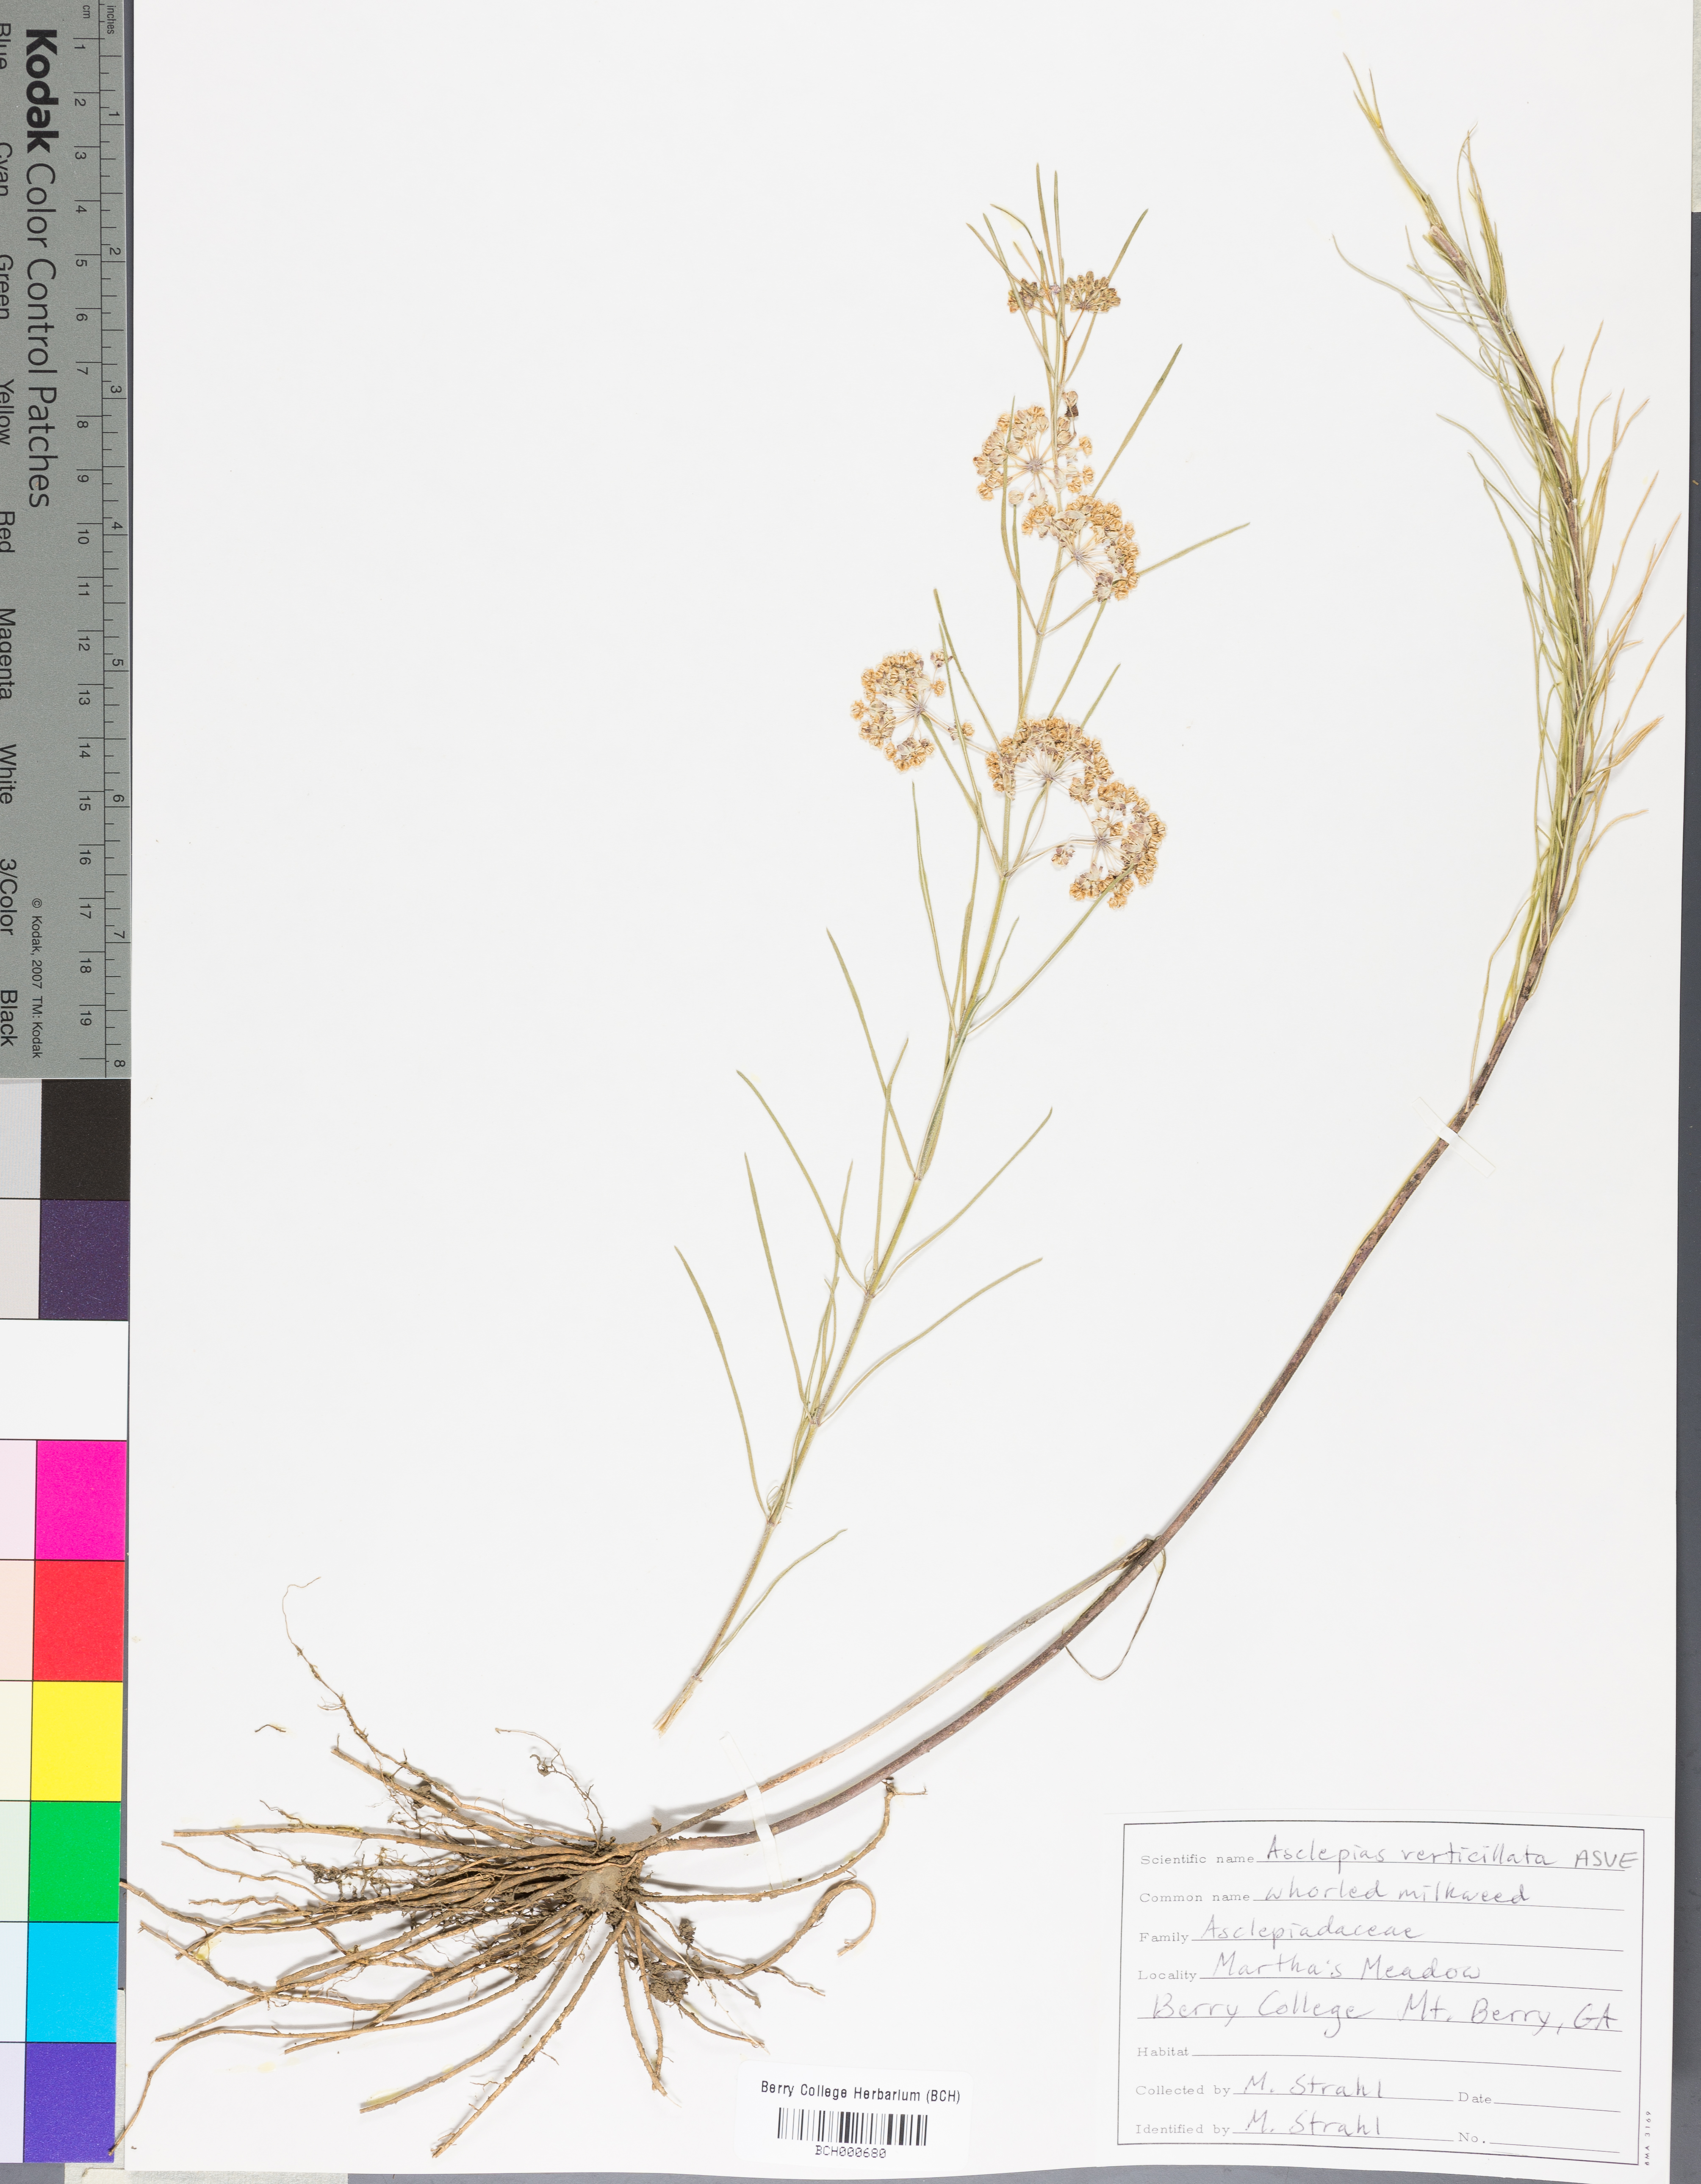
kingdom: Plantae
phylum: Tracheophyta
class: Magnoliopsida
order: Gentianales
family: Apocynaceae
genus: Asclepias
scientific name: Asclepias verticillata
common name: Eastern whorled milkweed
